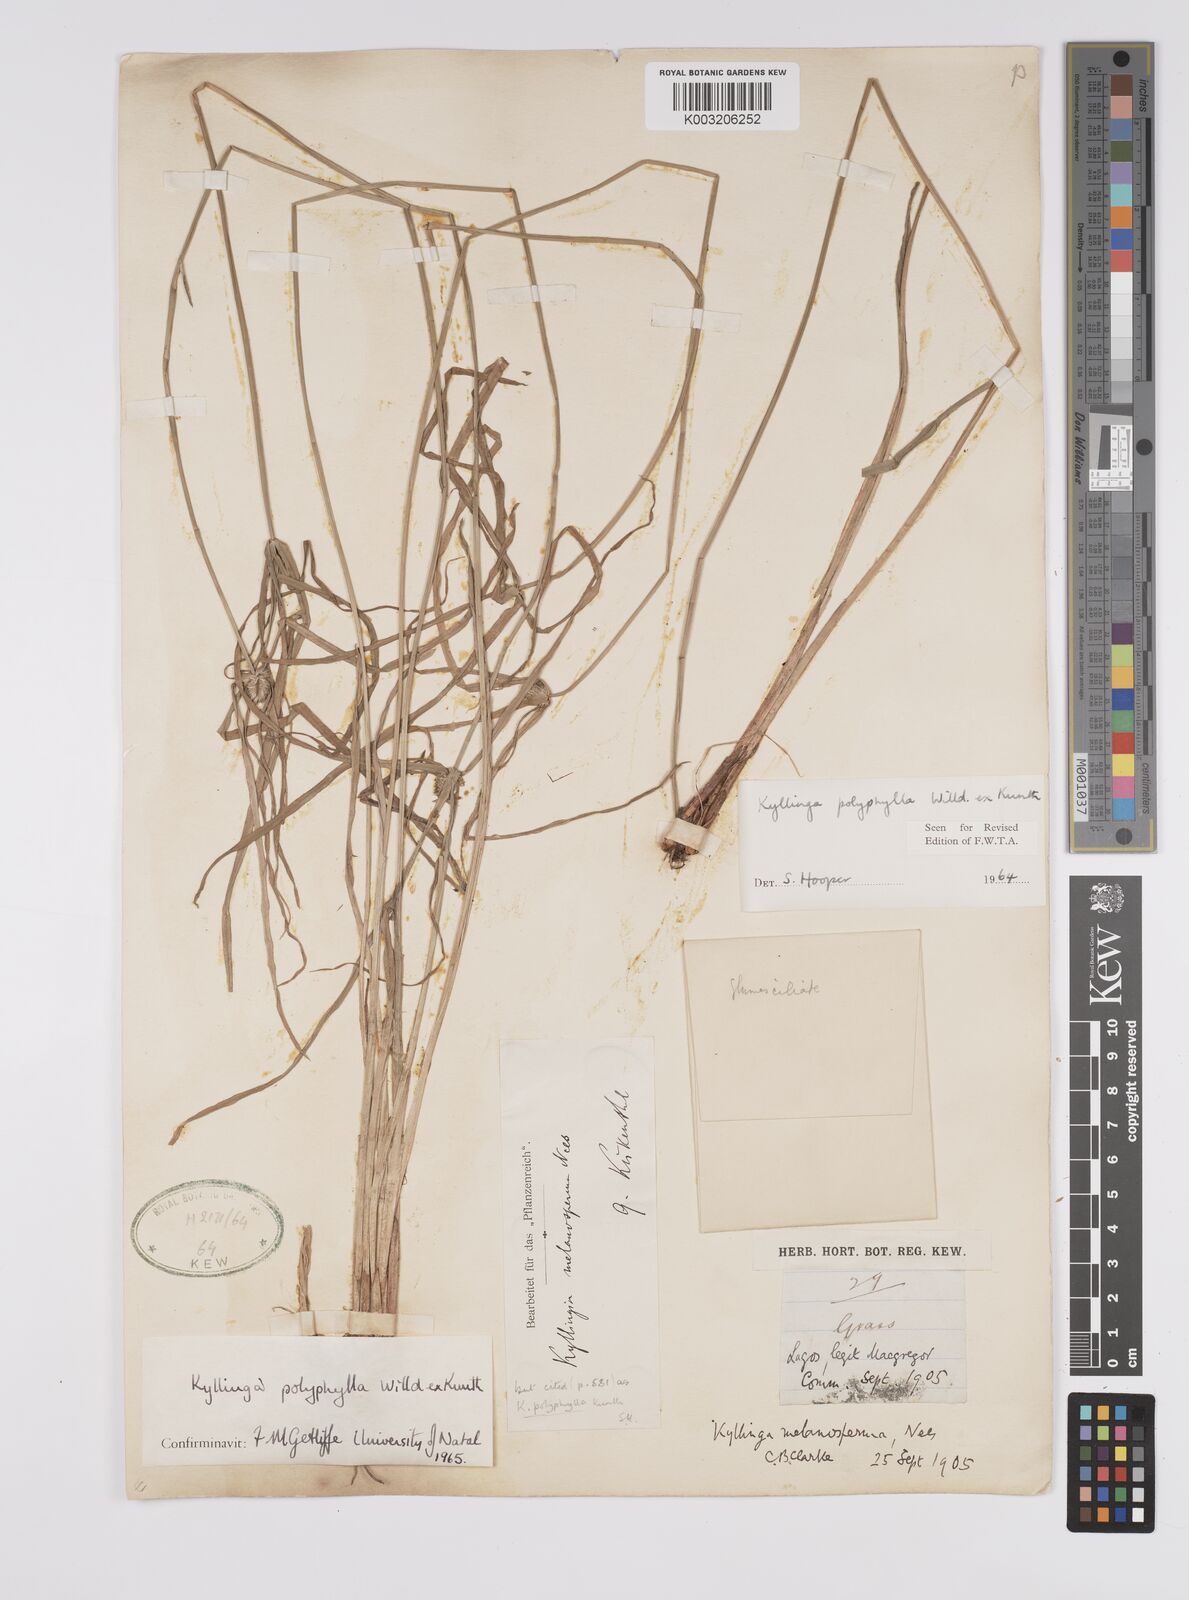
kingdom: Plantae
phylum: Tracheophyta
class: Liliopsida
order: Poales
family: Cyperaceae
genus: Cyperus
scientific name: Cyperus
